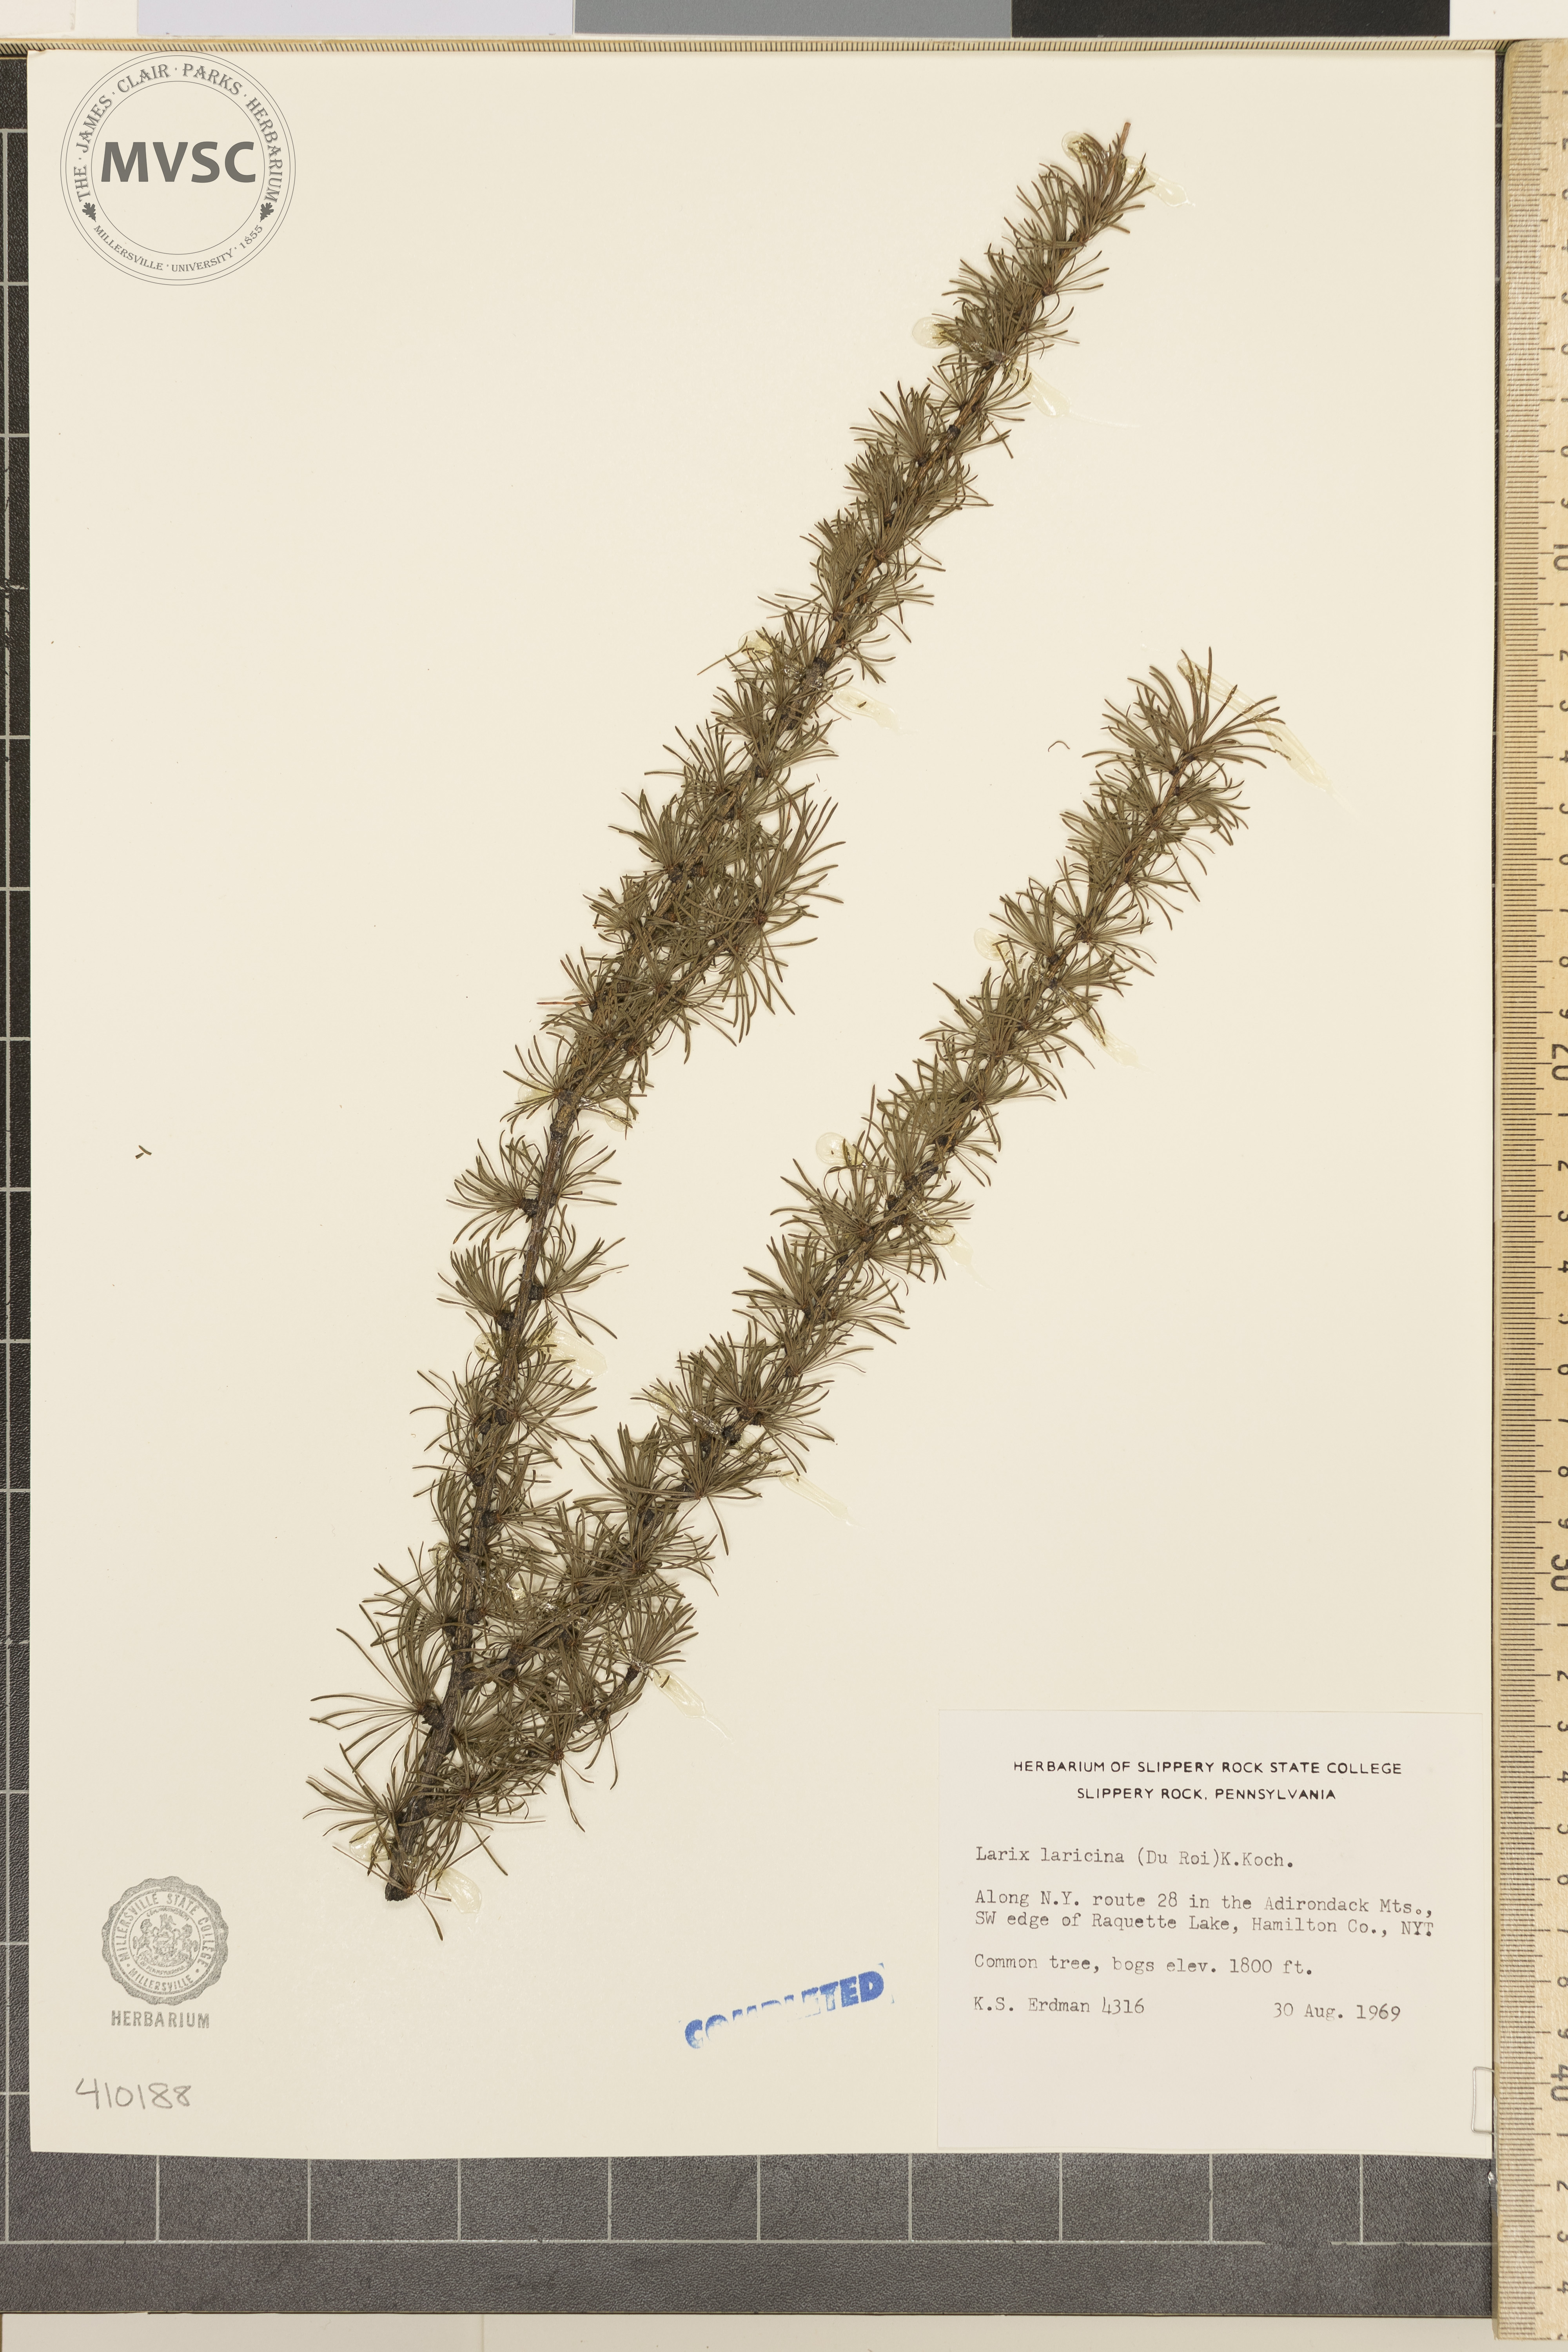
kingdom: Plantae
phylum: Tracheophyta
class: Pinopsida
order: Pinales
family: Pinaceae
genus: Larix
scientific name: Larix laricina
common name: American larch
